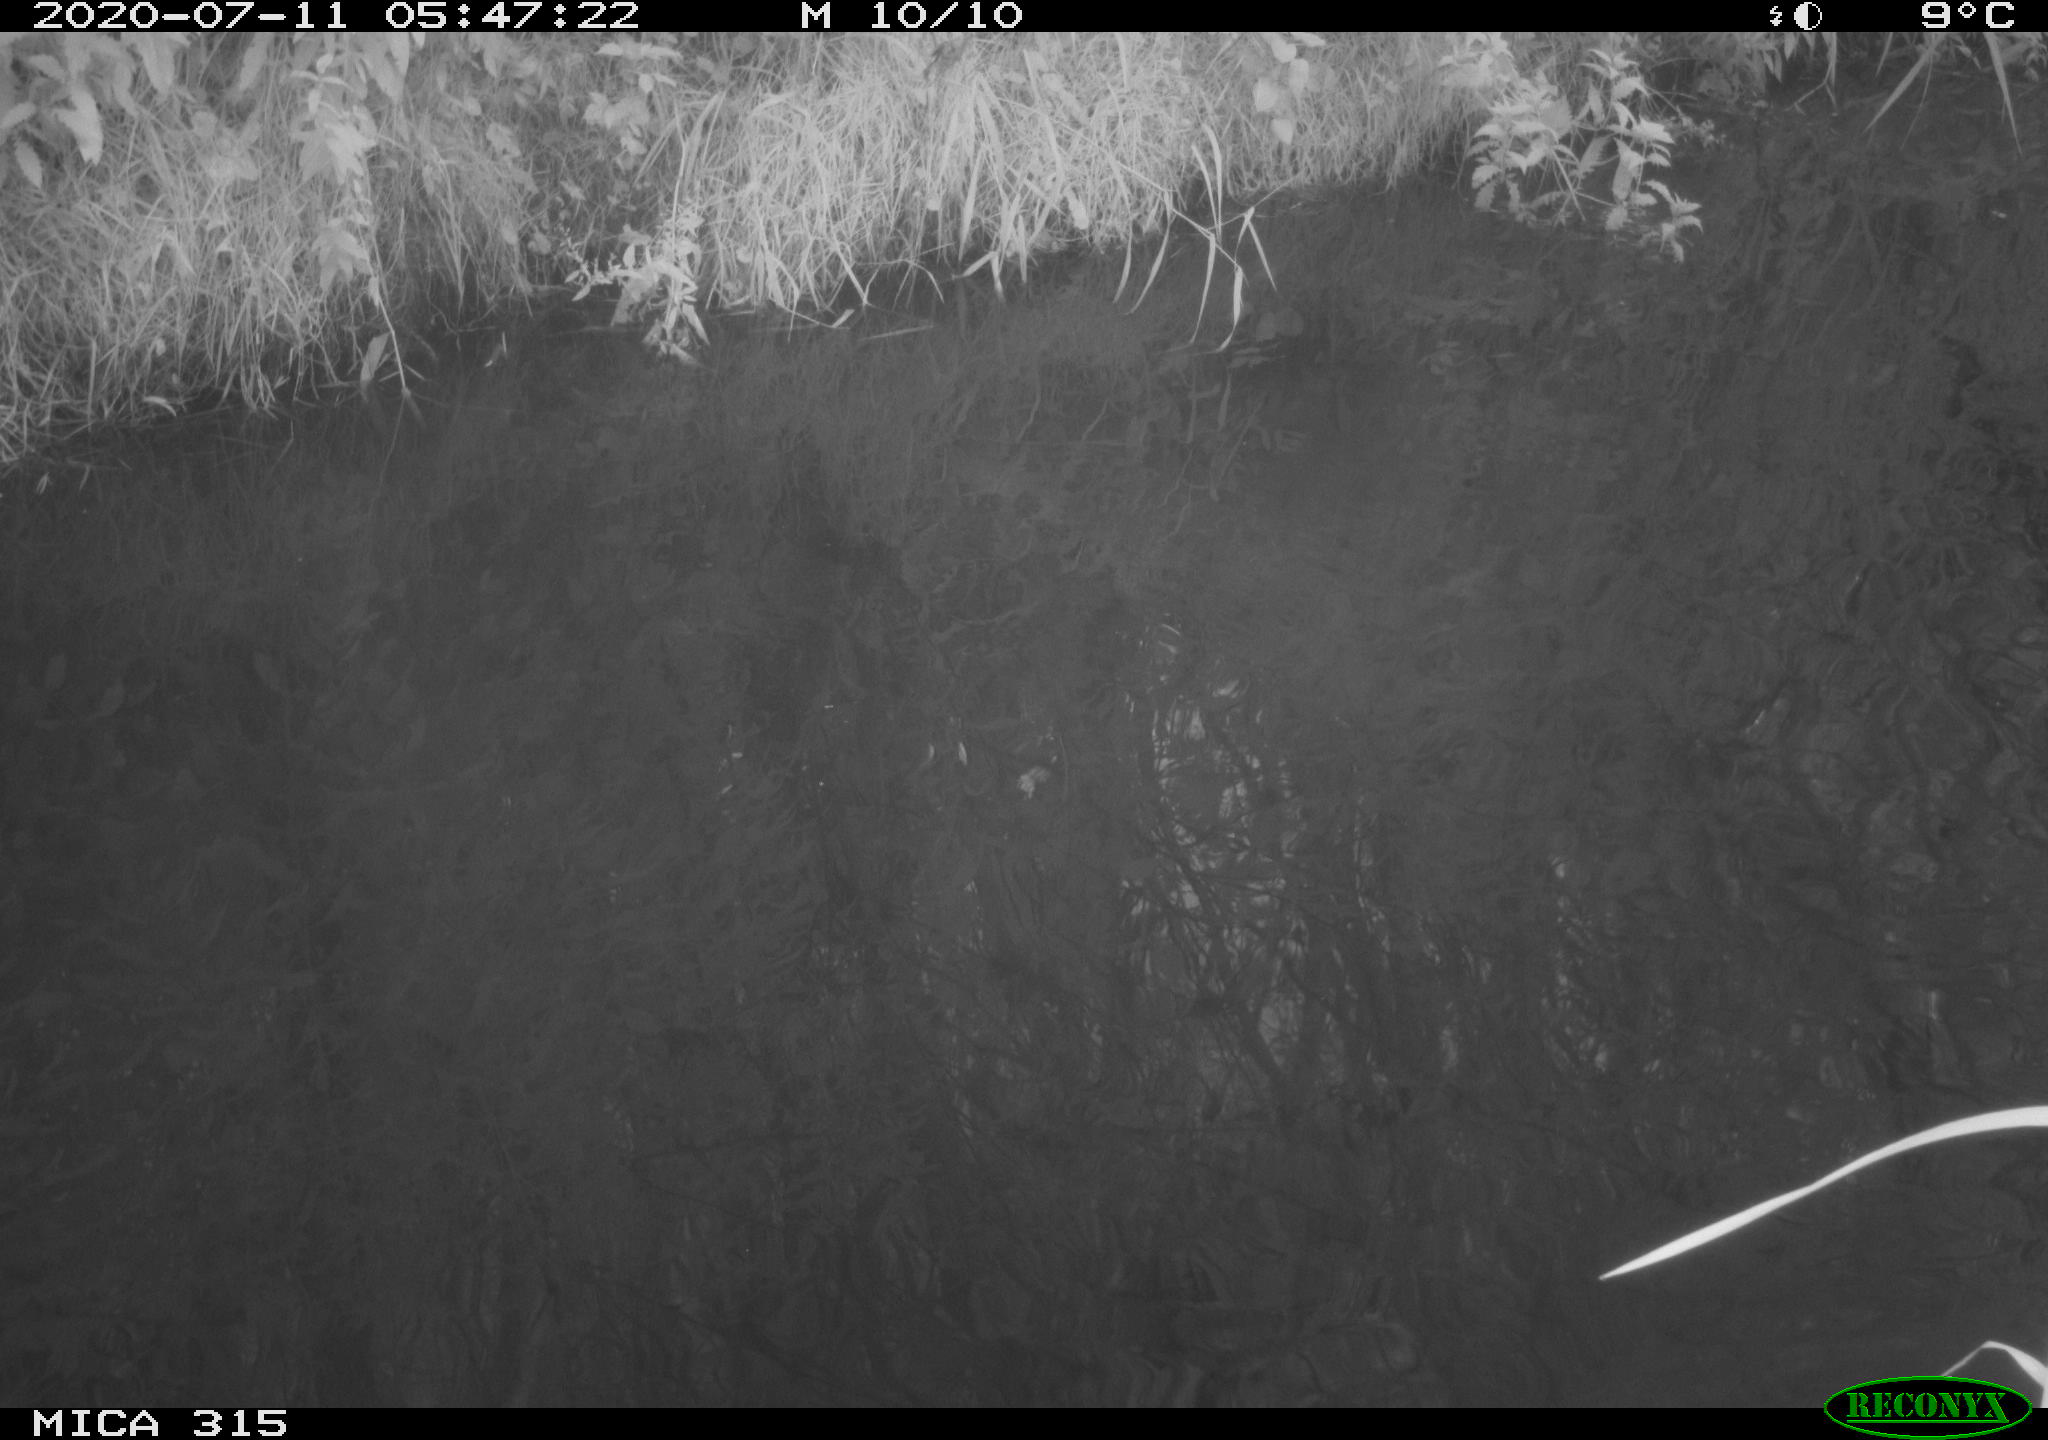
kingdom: Animalia
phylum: Chordata
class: Aves
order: Anseriformes
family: Anatidae
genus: Anas
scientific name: Anas platyrhynchos
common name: Mallard
